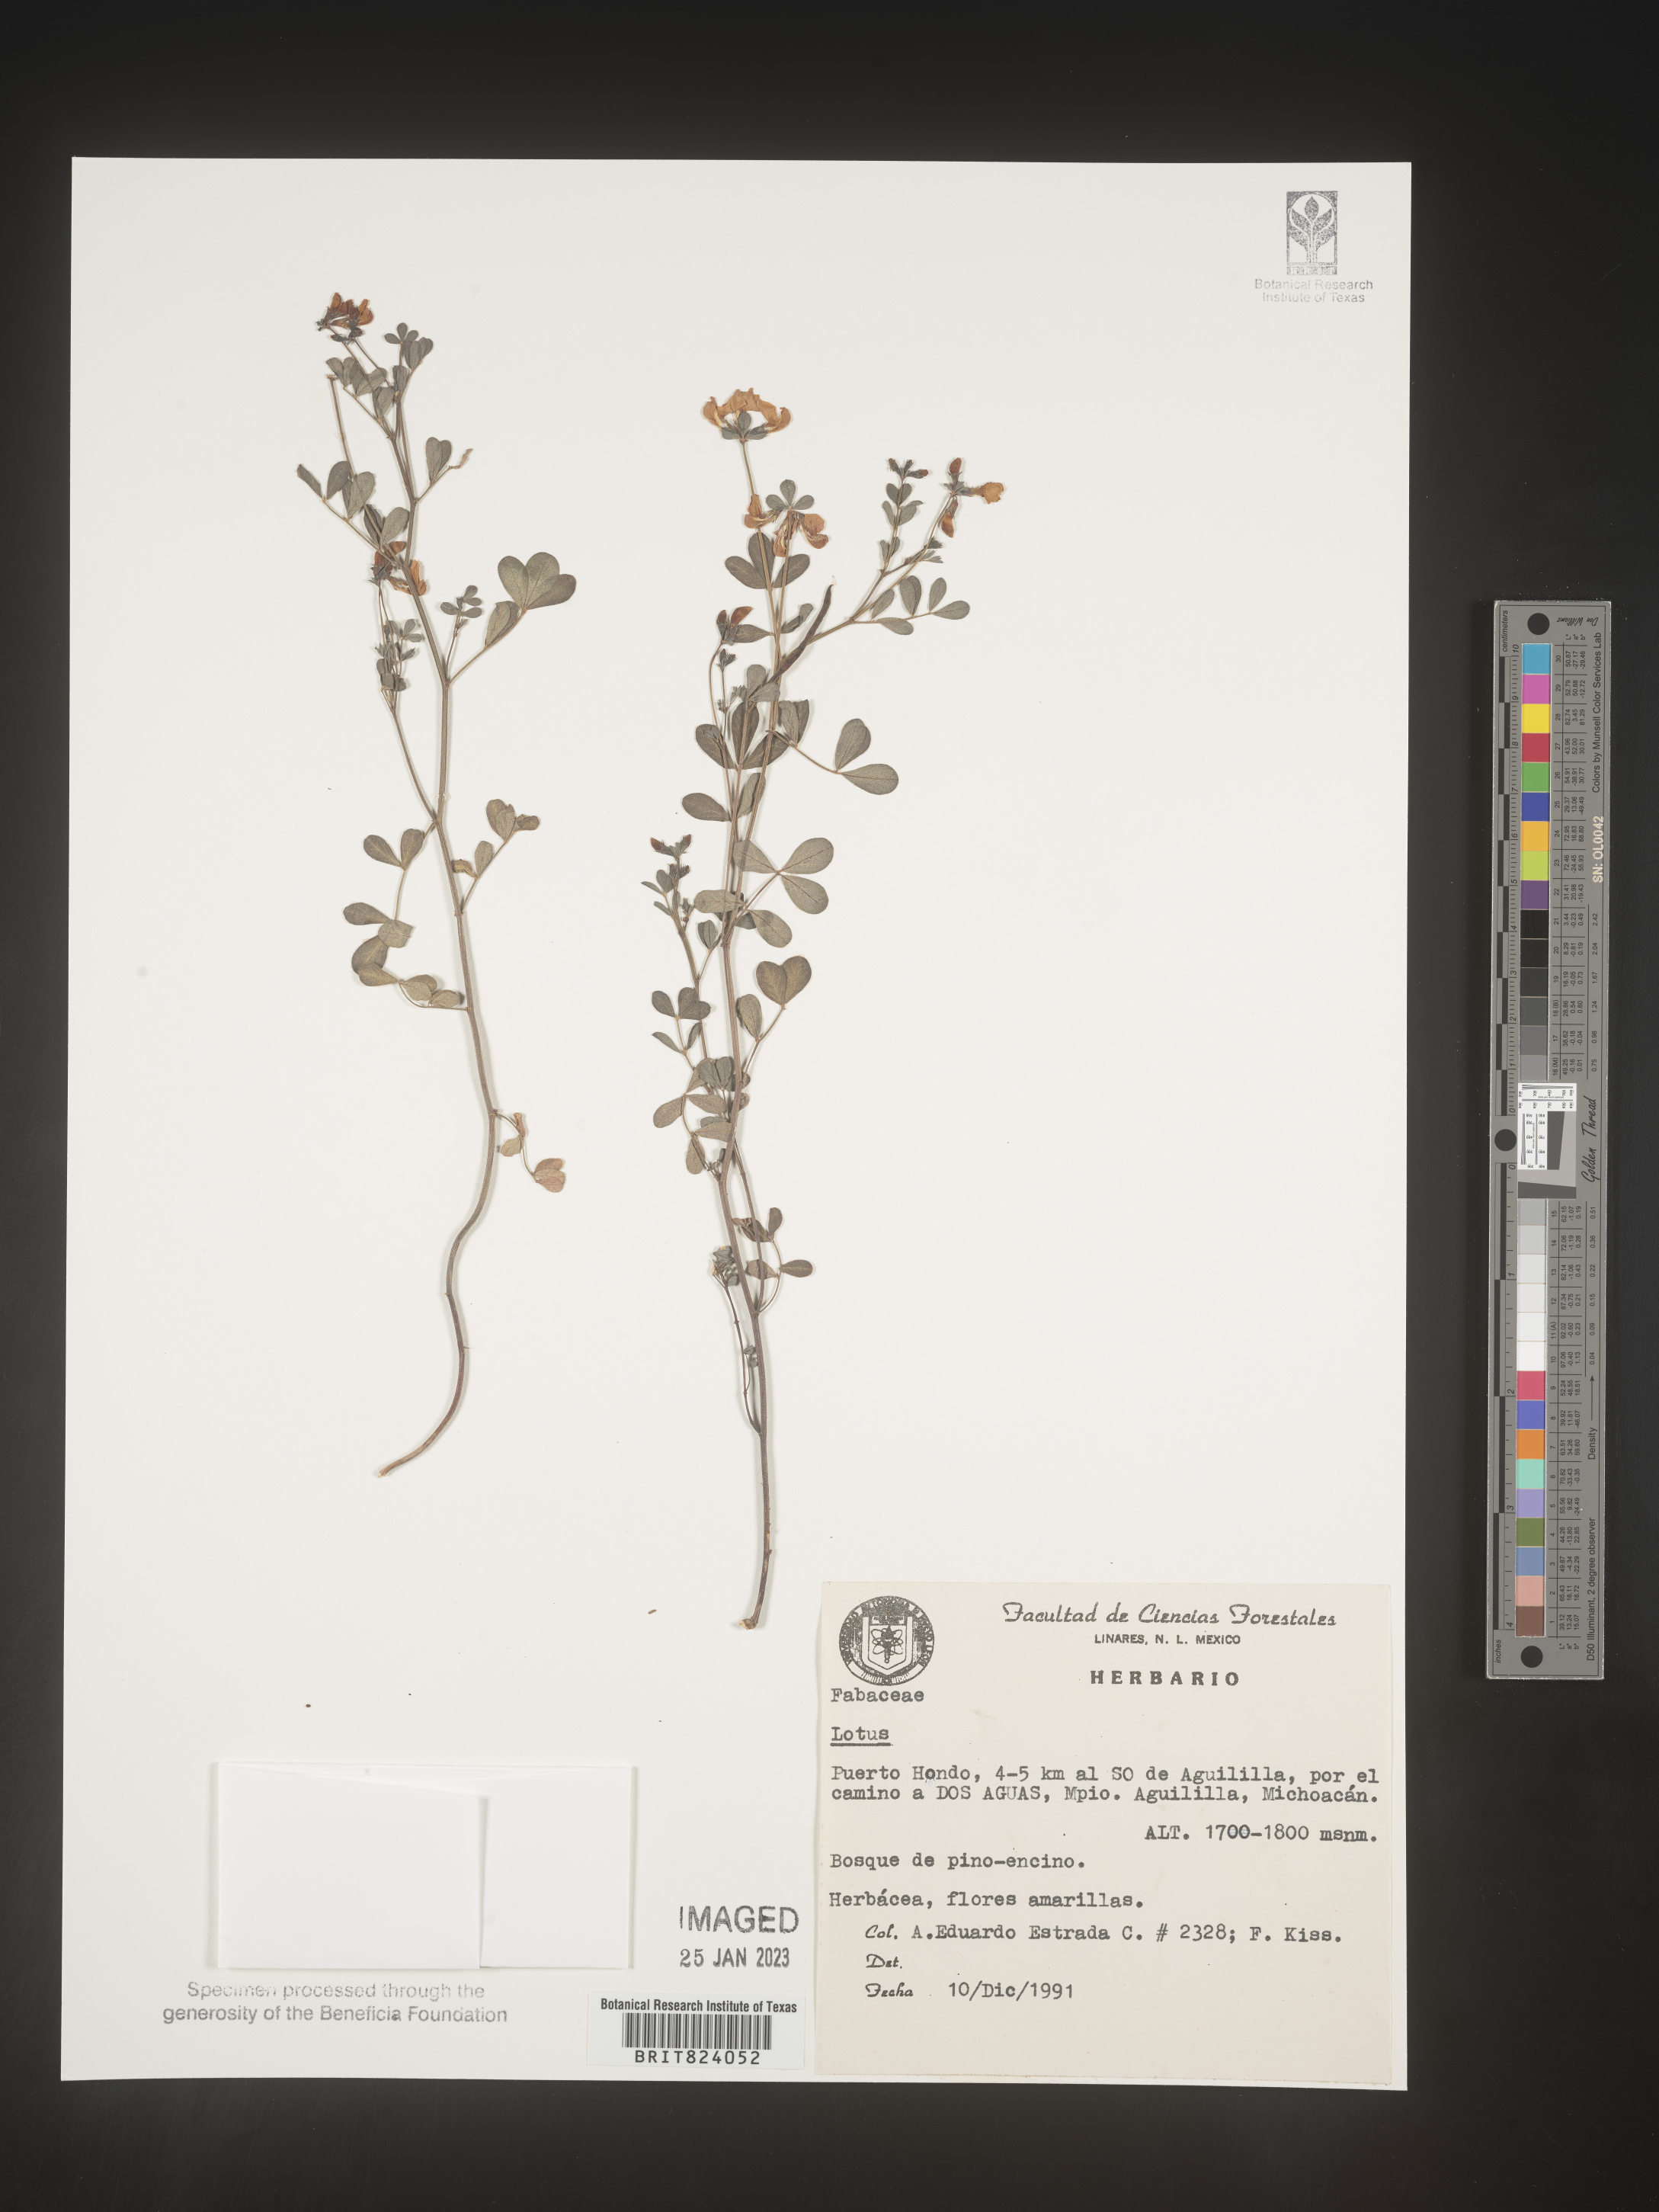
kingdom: Plantae
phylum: Tracheophyta
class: Magnoliopsida
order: Fabales
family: Fabaceae
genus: Lotus
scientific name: Lotus
